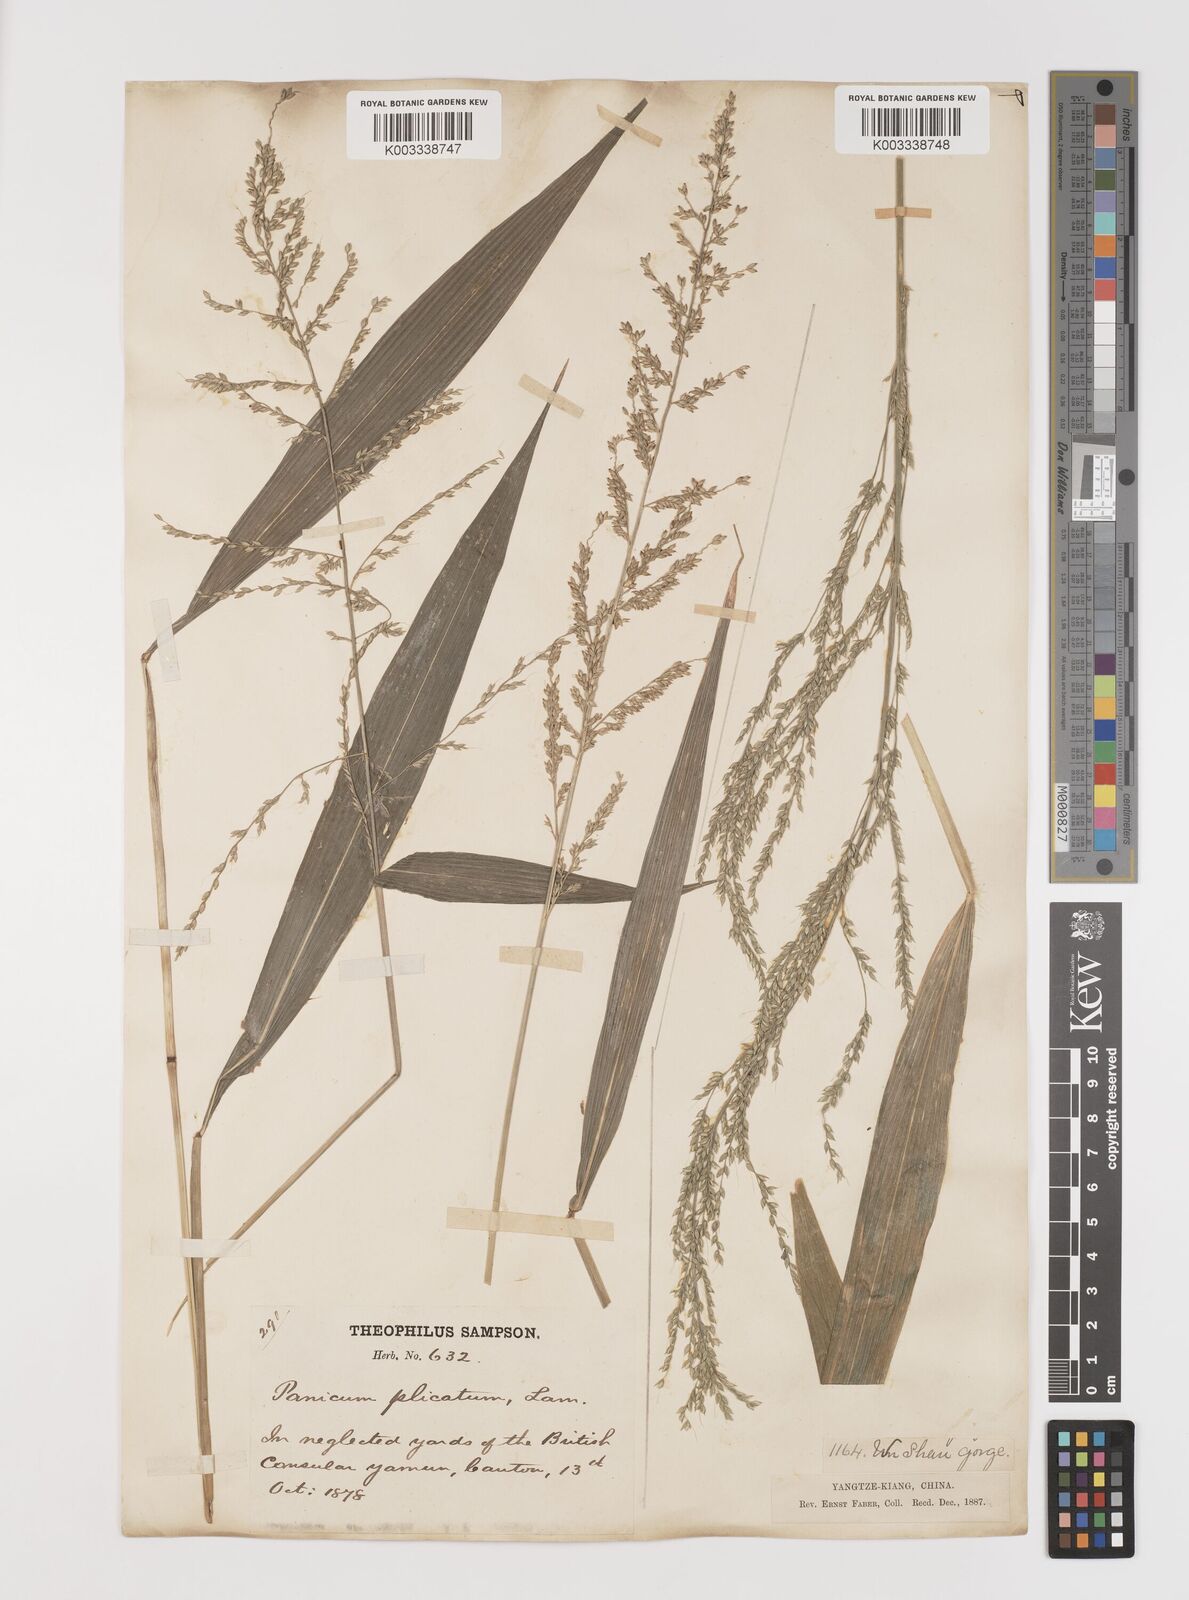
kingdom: Plantae
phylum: Tracheophyta
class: Liliopsida
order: Poales
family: Poaceae
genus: Setaria
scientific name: Setaria plicata
